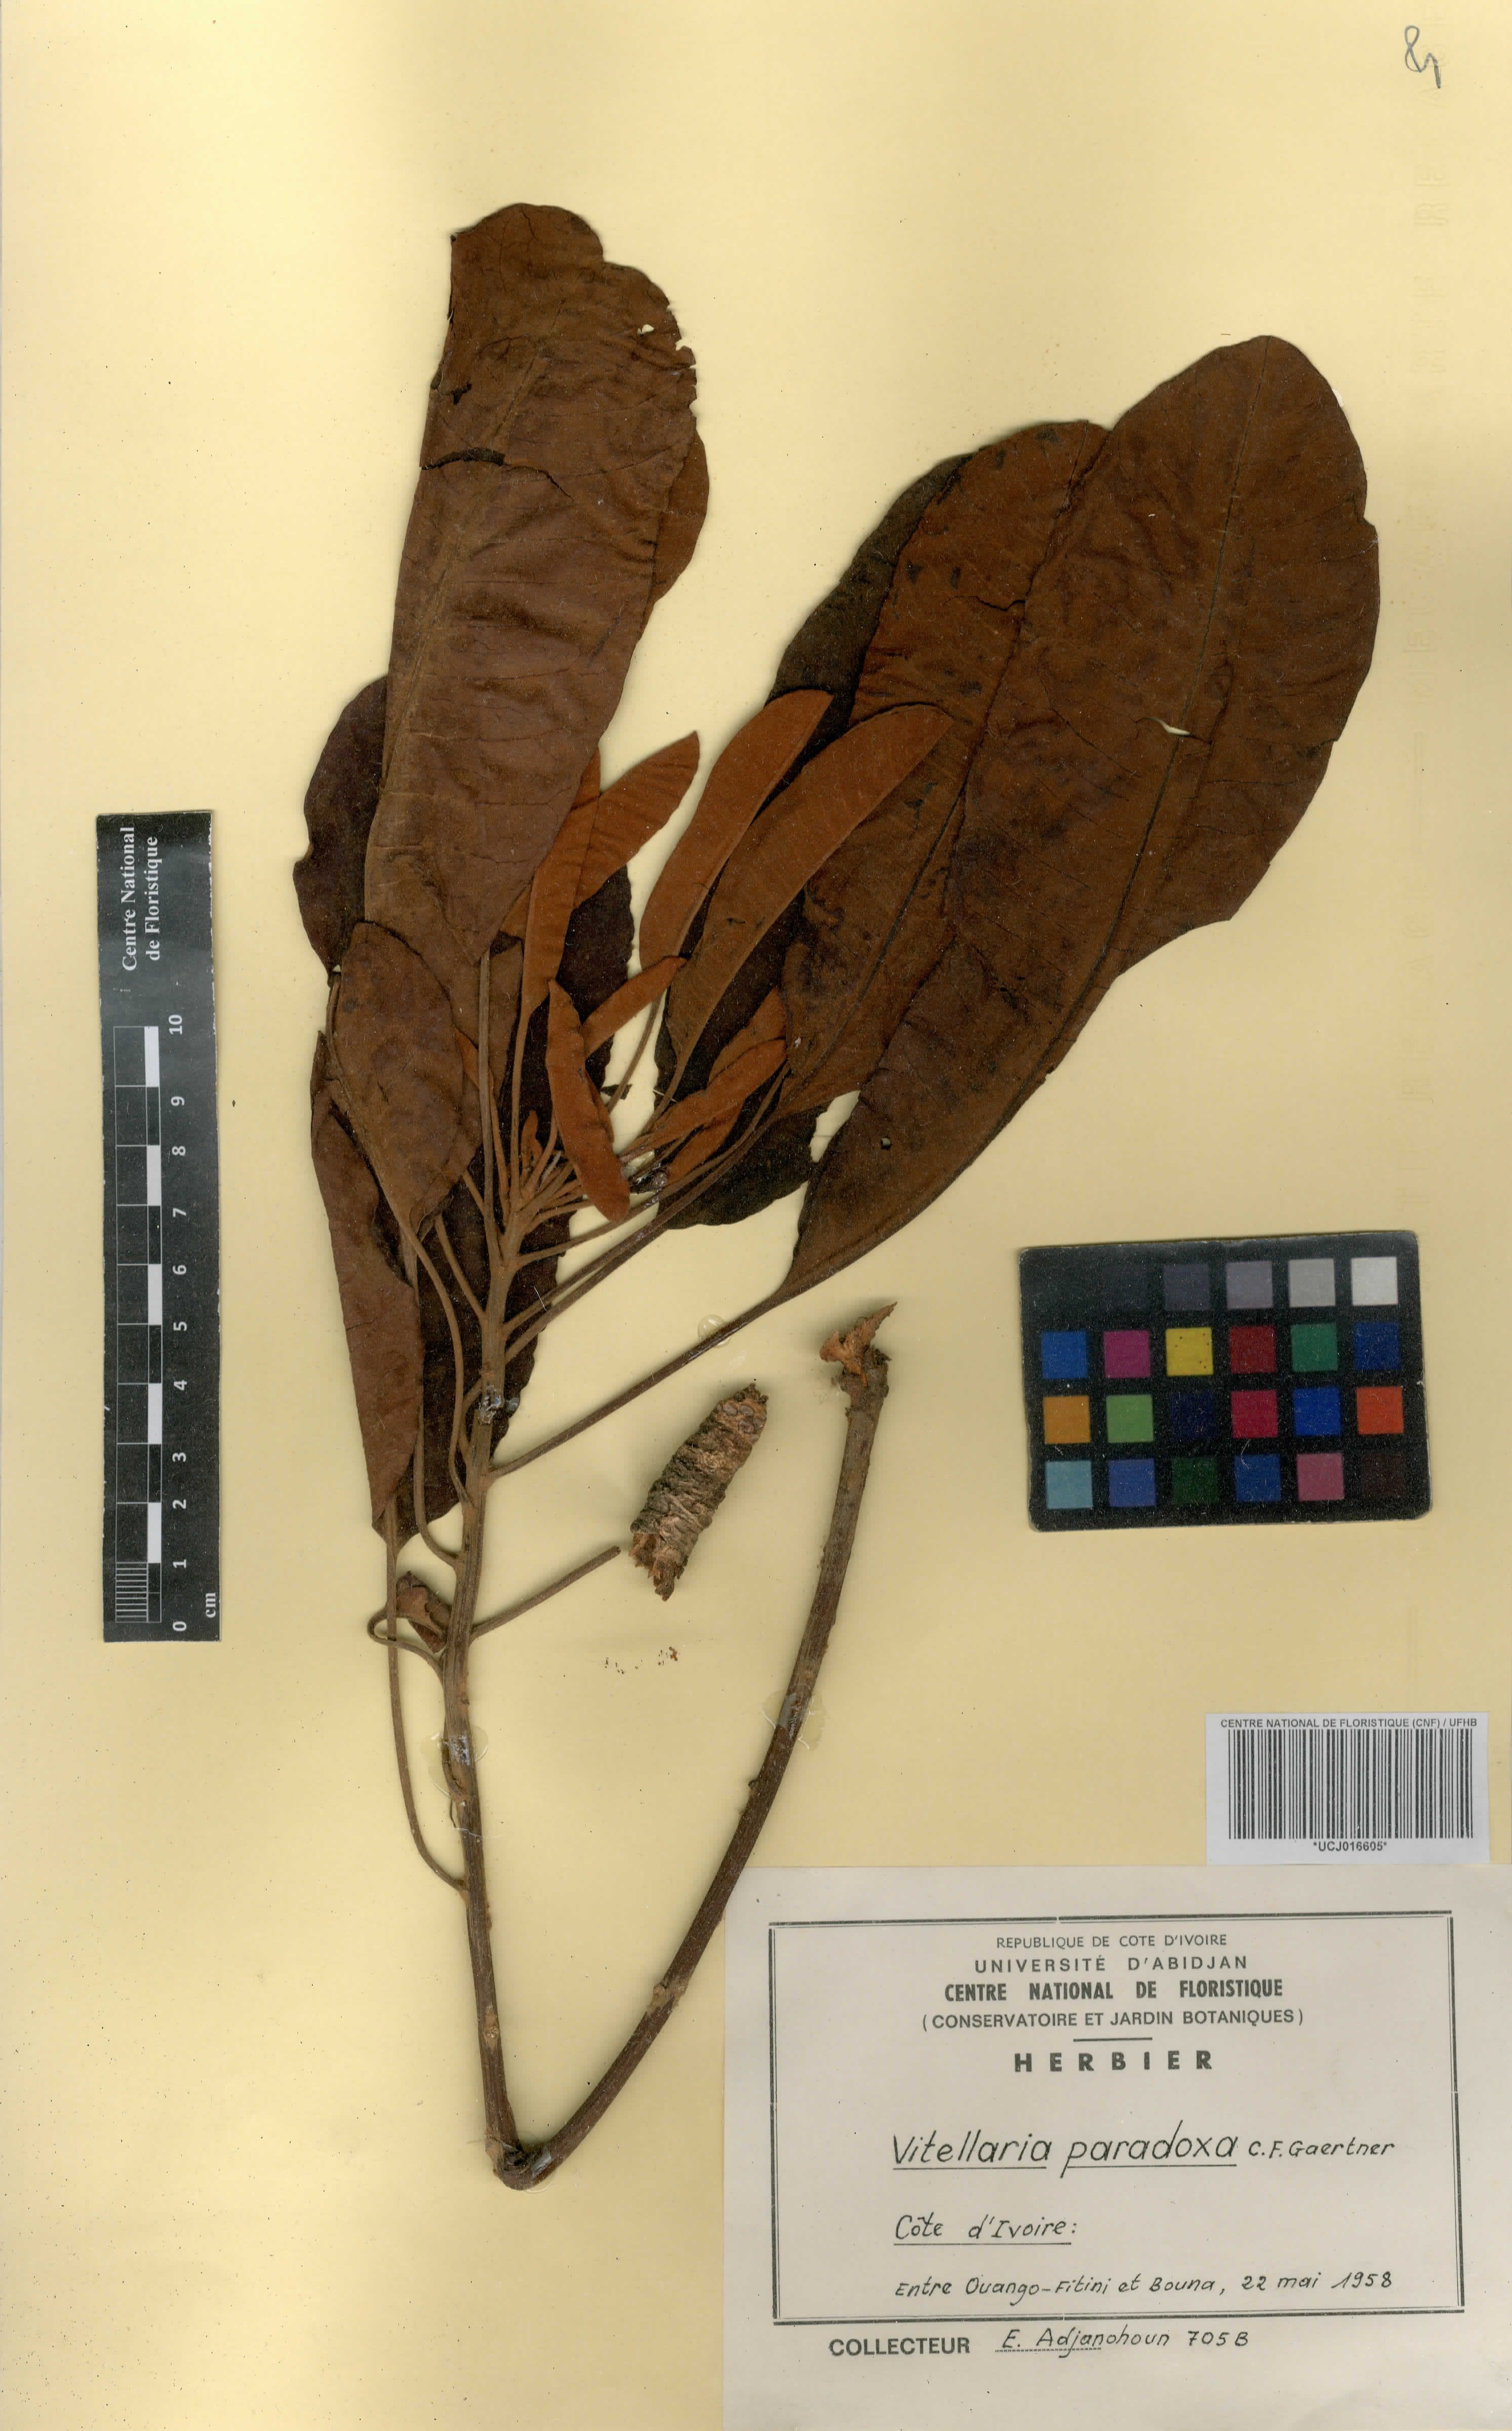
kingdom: Plantae
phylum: Tracheophyta
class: Magnoliopsida
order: Ericales
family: Sapotaceae
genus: Vitellaria
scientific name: Vitellaria paradoxa
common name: Shea butter tree
